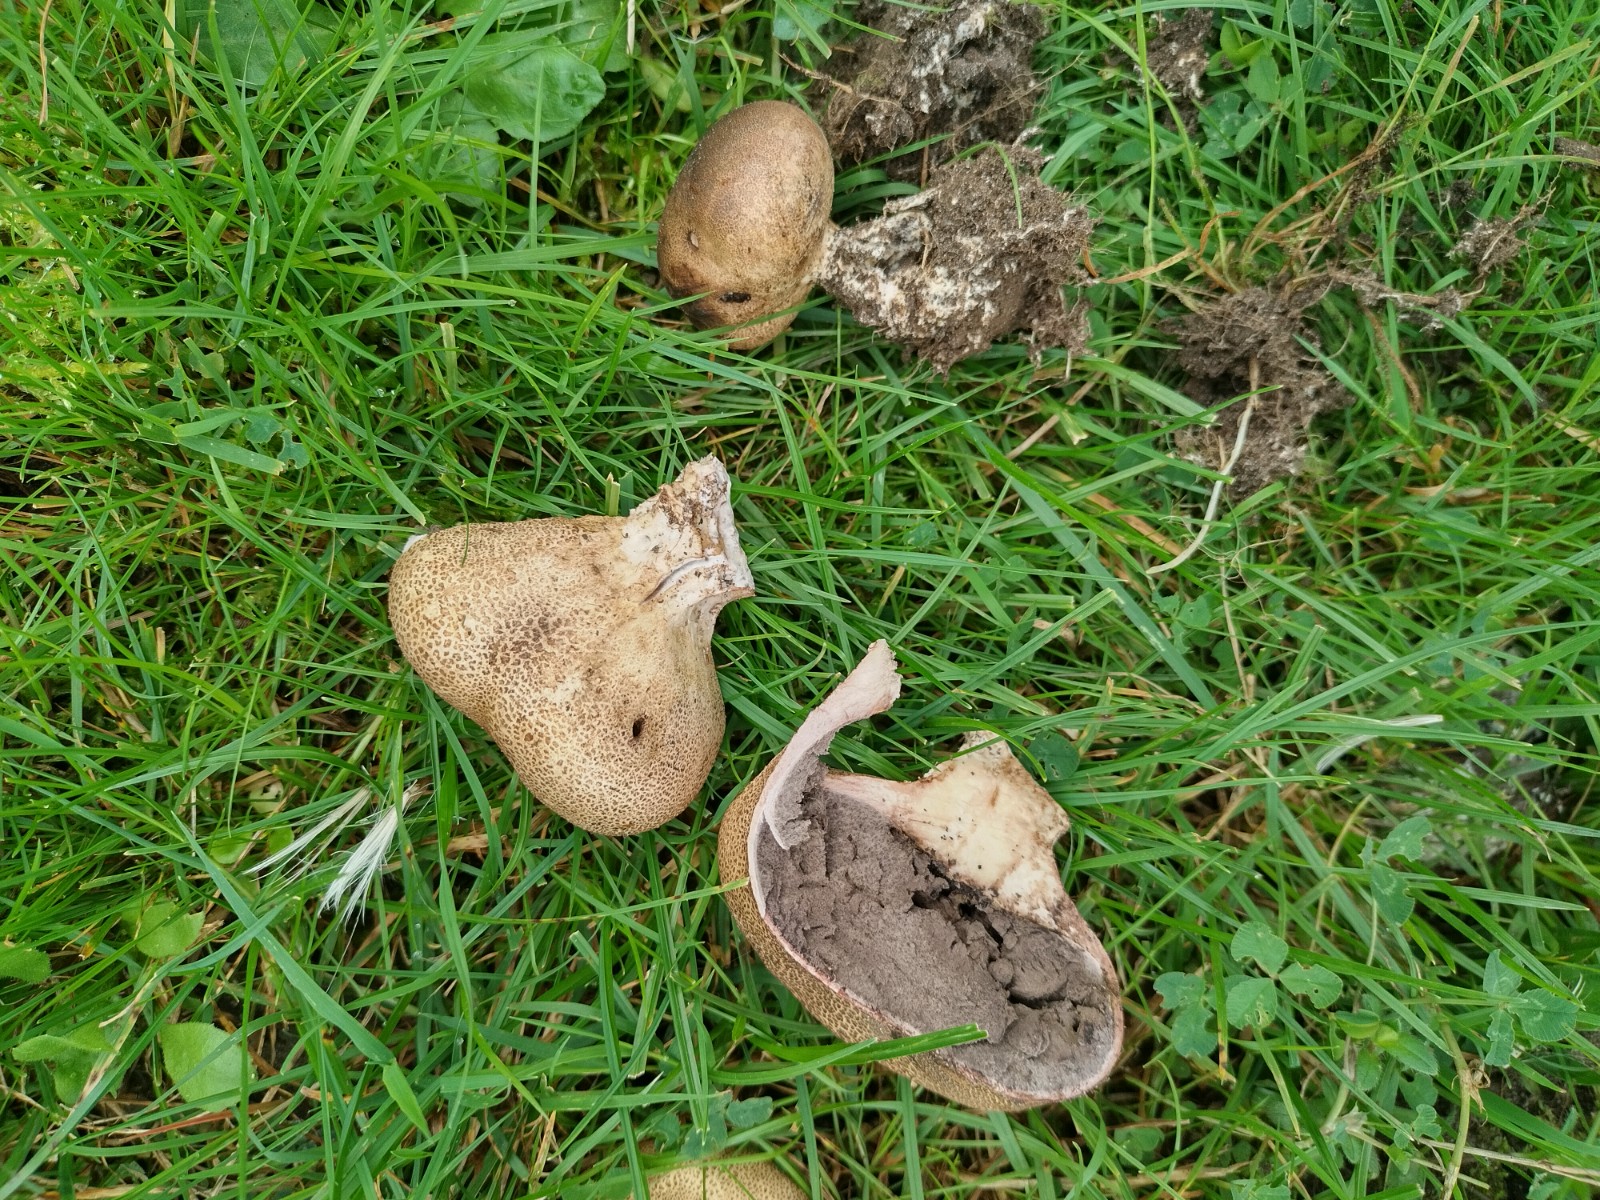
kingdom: Fungi
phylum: Basidiomycota
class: Agaricomycetes
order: Boletales
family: Sclerodermataceae
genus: Scleroderma
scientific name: Scleroderma verrucosum
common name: stilket bruskbold
